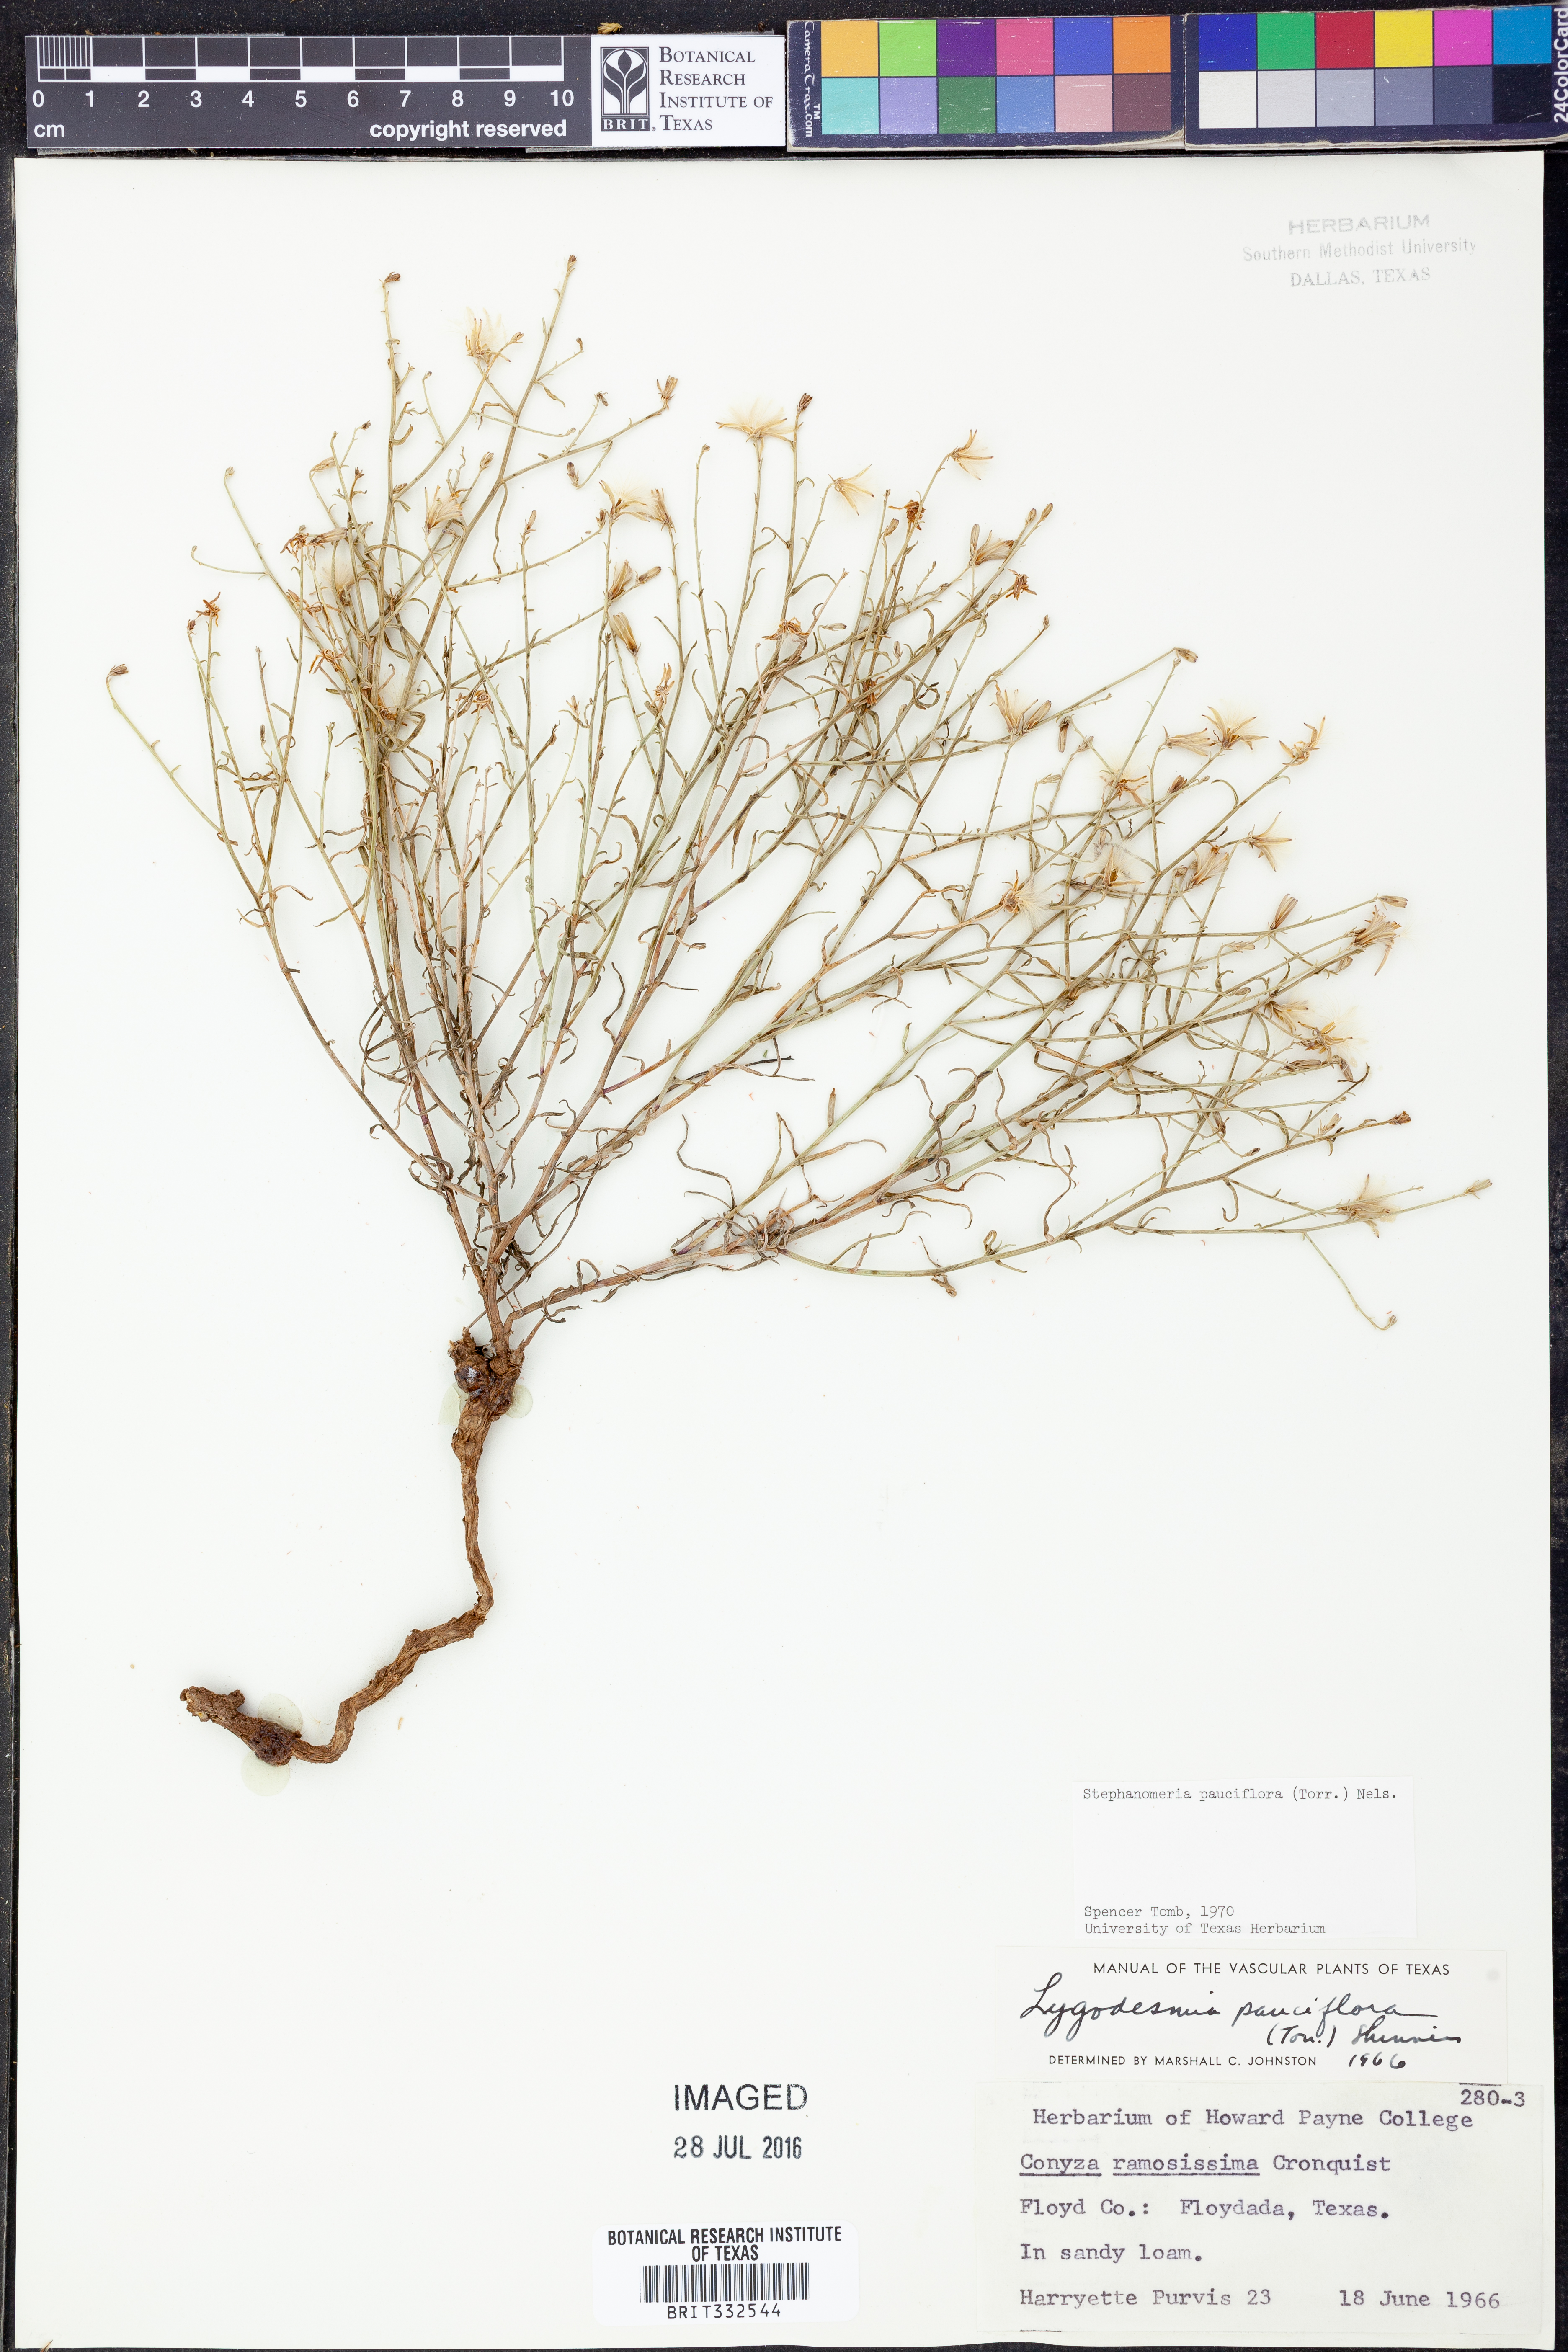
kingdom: Plantae
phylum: Tracheophyta
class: Magnoliopsida
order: Asterales
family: Asteraceae
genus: Stephanomeria
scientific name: Stephanomeria pauciflora
